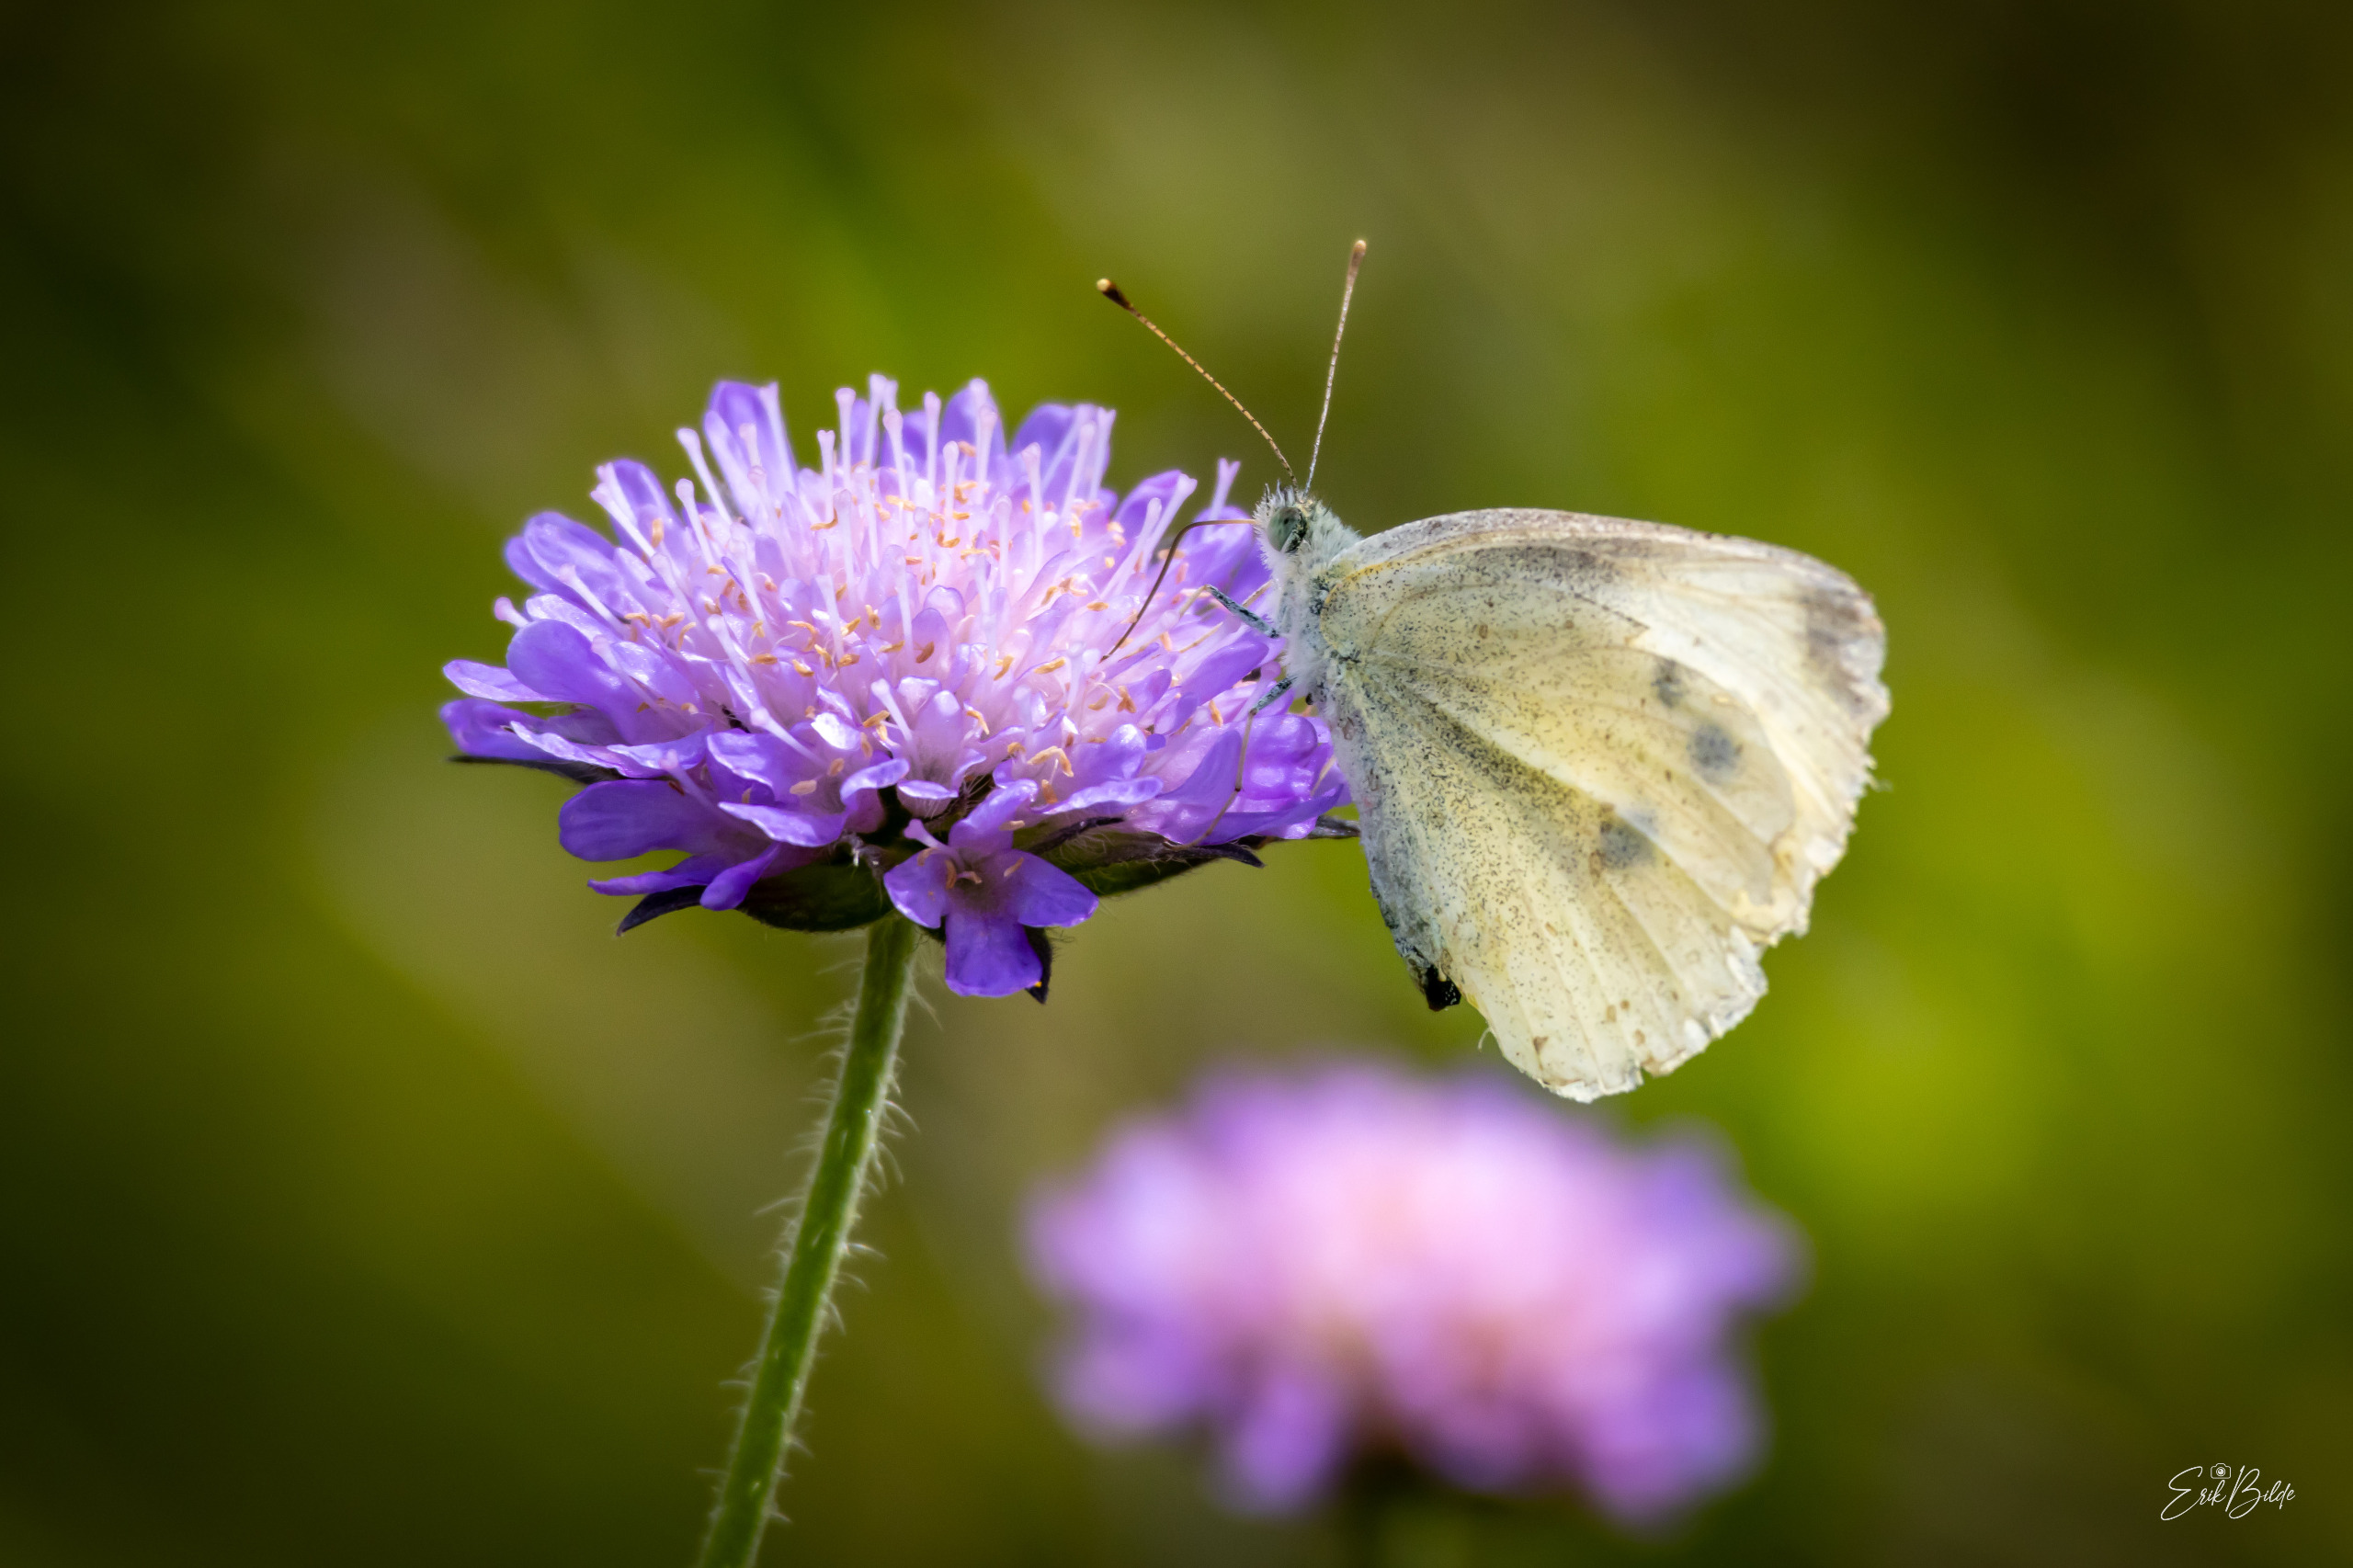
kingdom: Animalia
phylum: Arthropoda
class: Insecta
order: Lepidoptera
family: Pieridae
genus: Pieris
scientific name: Pieris rapae
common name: Lille kålsommerfugl
